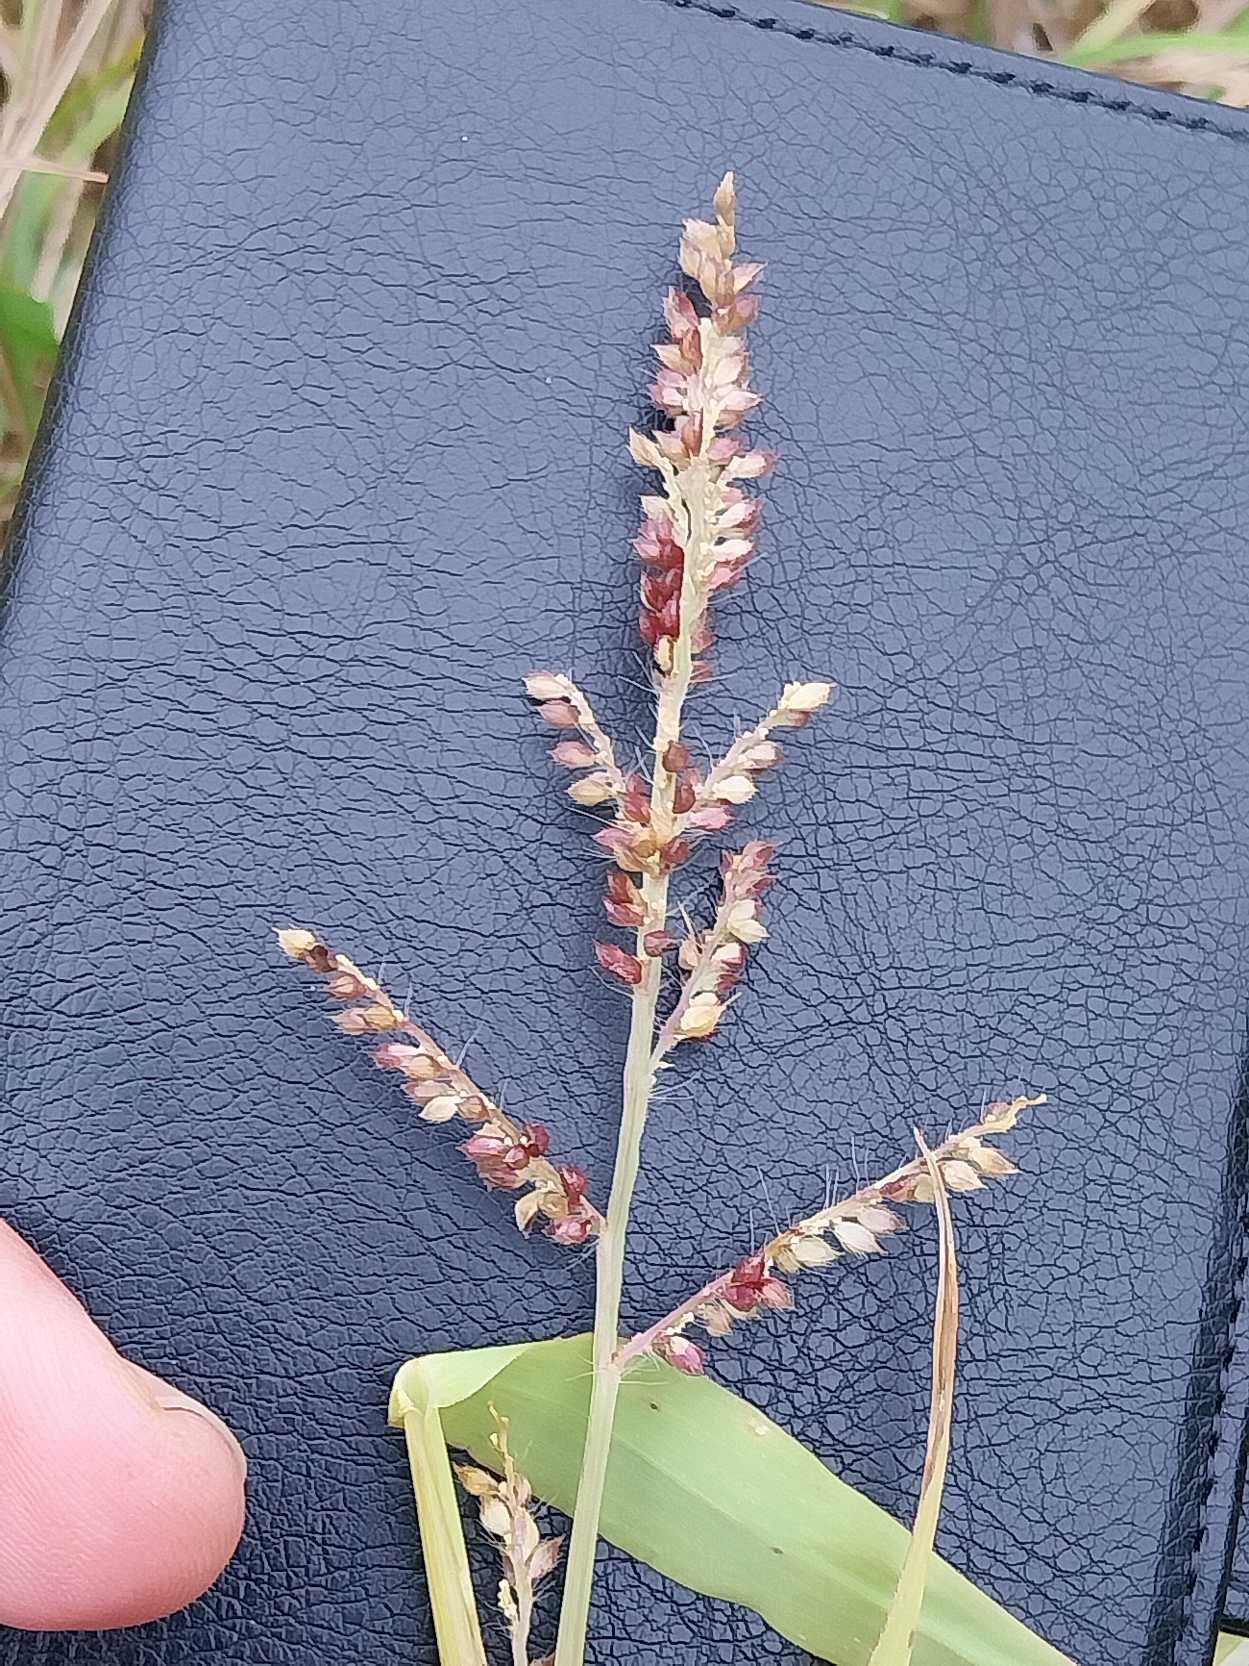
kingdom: Plantae
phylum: Tracheophyta
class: Liliopsida
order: Poales
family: Poaceae
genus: Echinochloa
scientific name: Echinochloa crus-galli
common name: Almindelig hanespore
